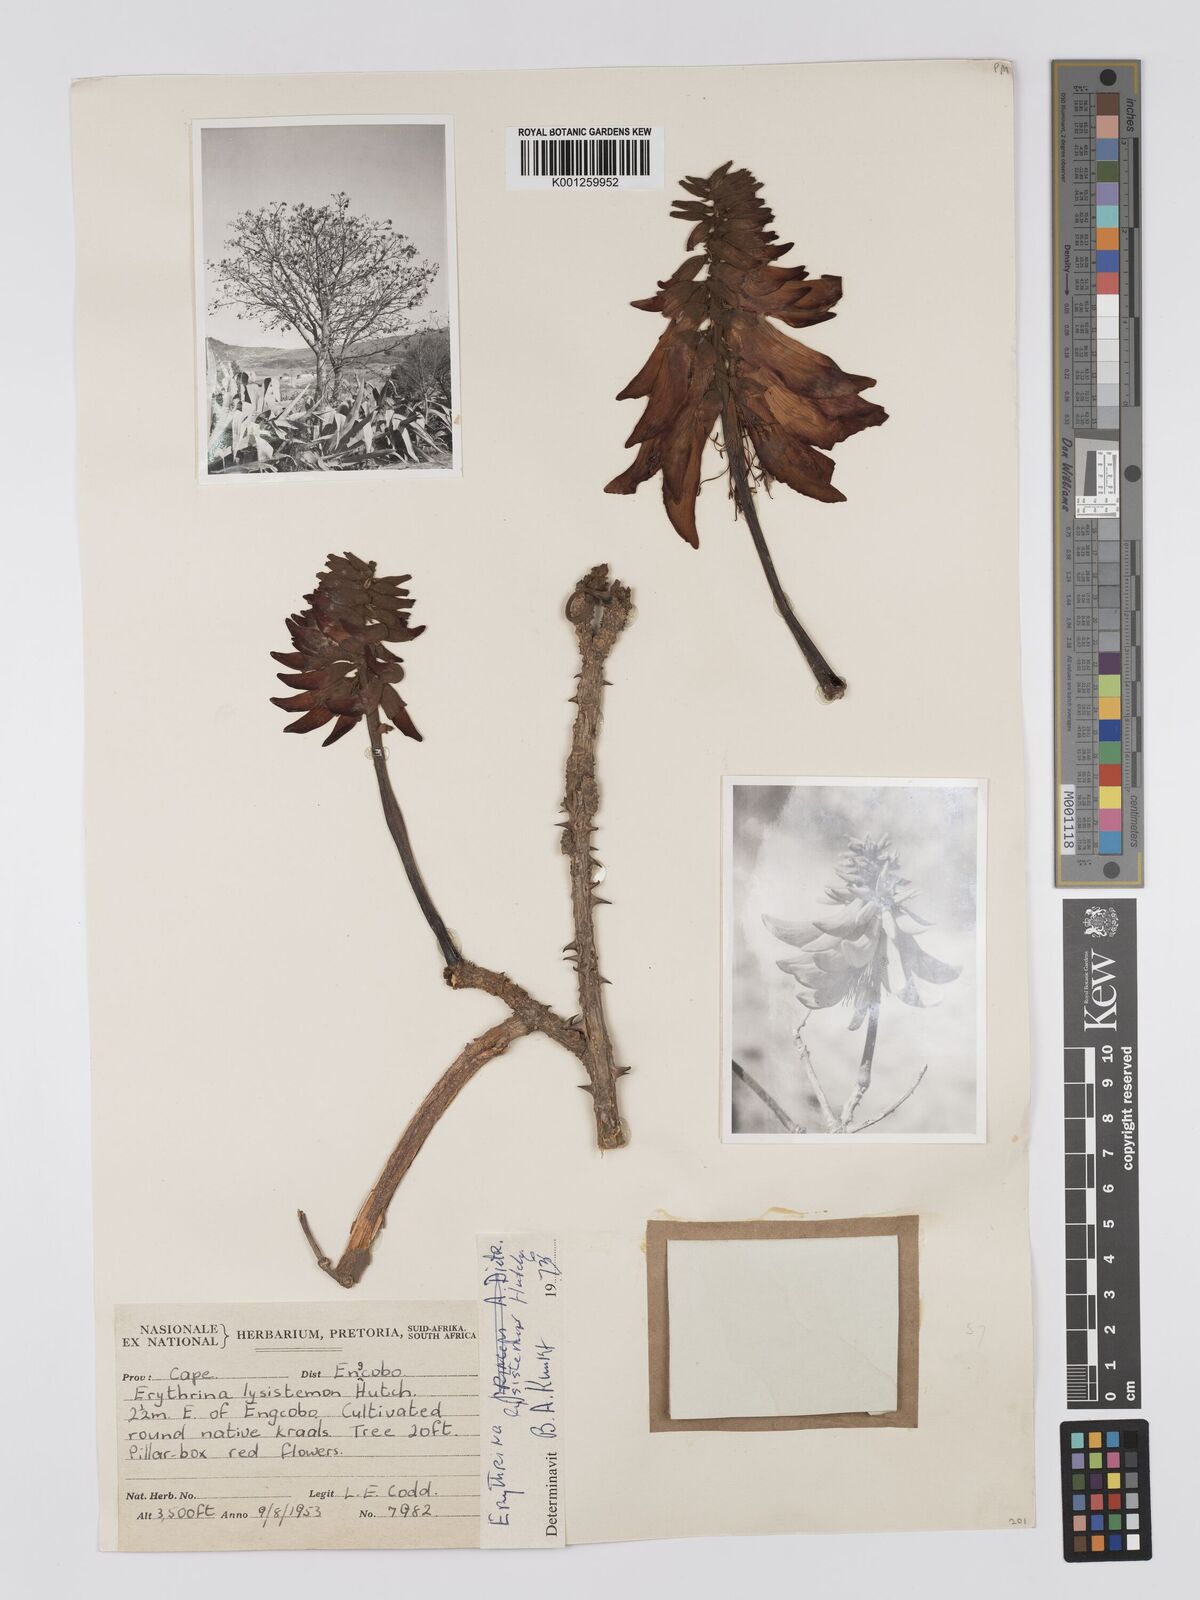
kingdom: Plantae
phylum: Tracheophyta
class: Magnoliopsida
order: Fabales
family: Fabaceae
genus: Erythrina
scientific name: Erythrina lysistemon
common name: Common coral tree
